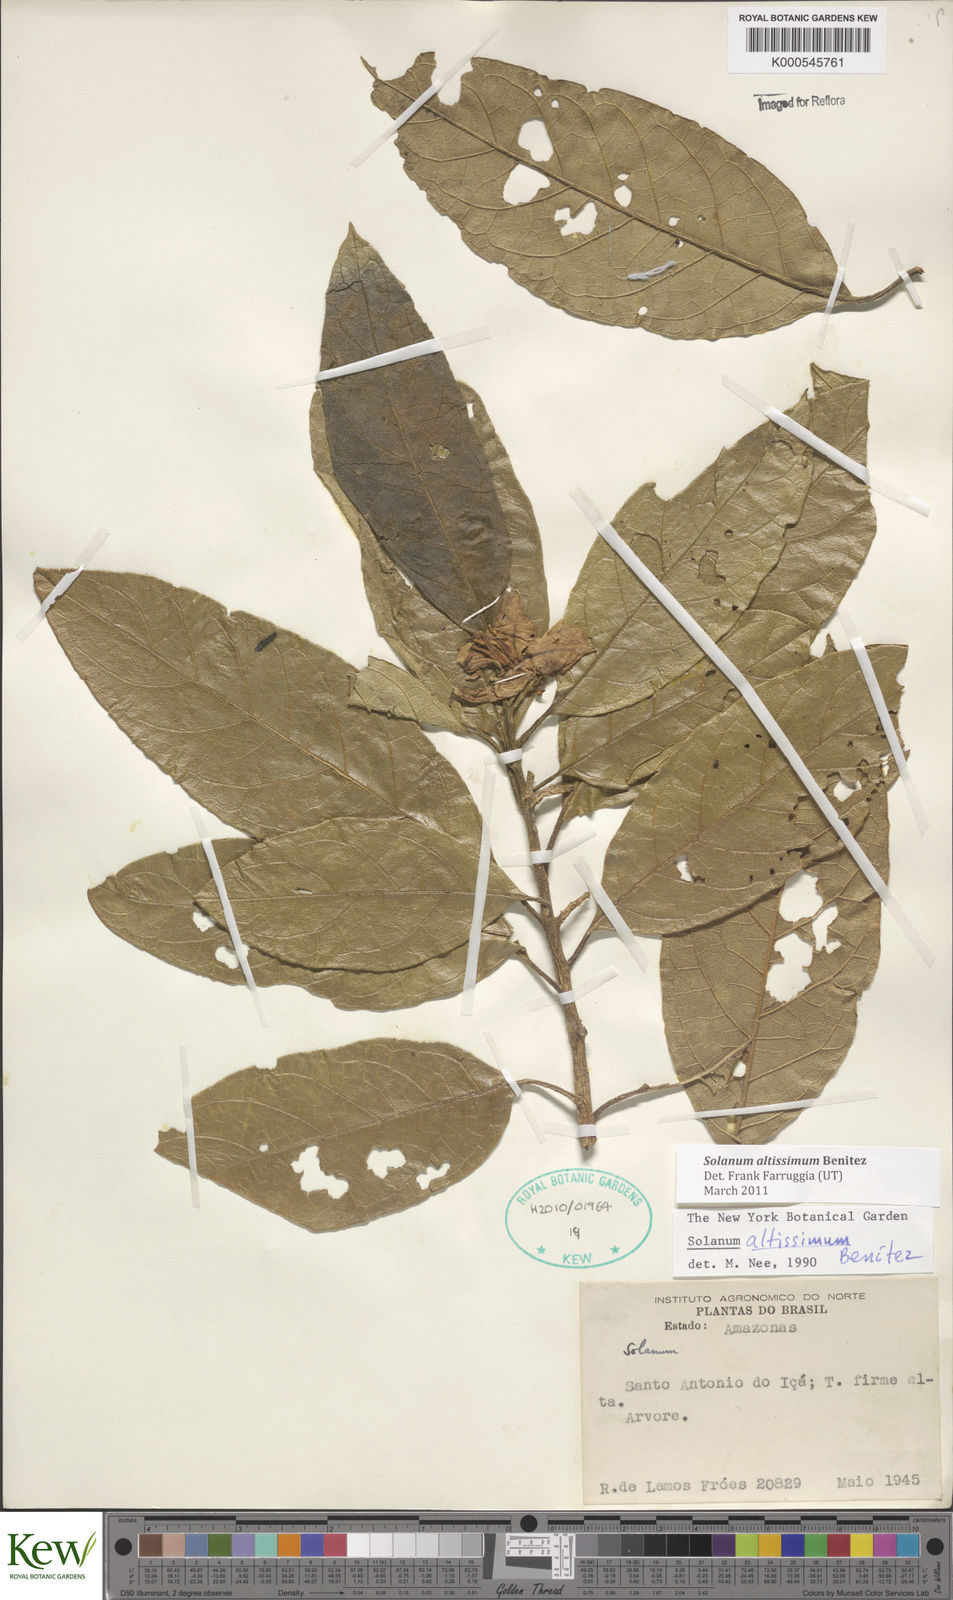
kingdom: Plantae
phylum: Tracheophyta
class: Magnoliopsida
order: Solanales
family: Solanaceae
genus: Solanum
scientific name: Solanum
